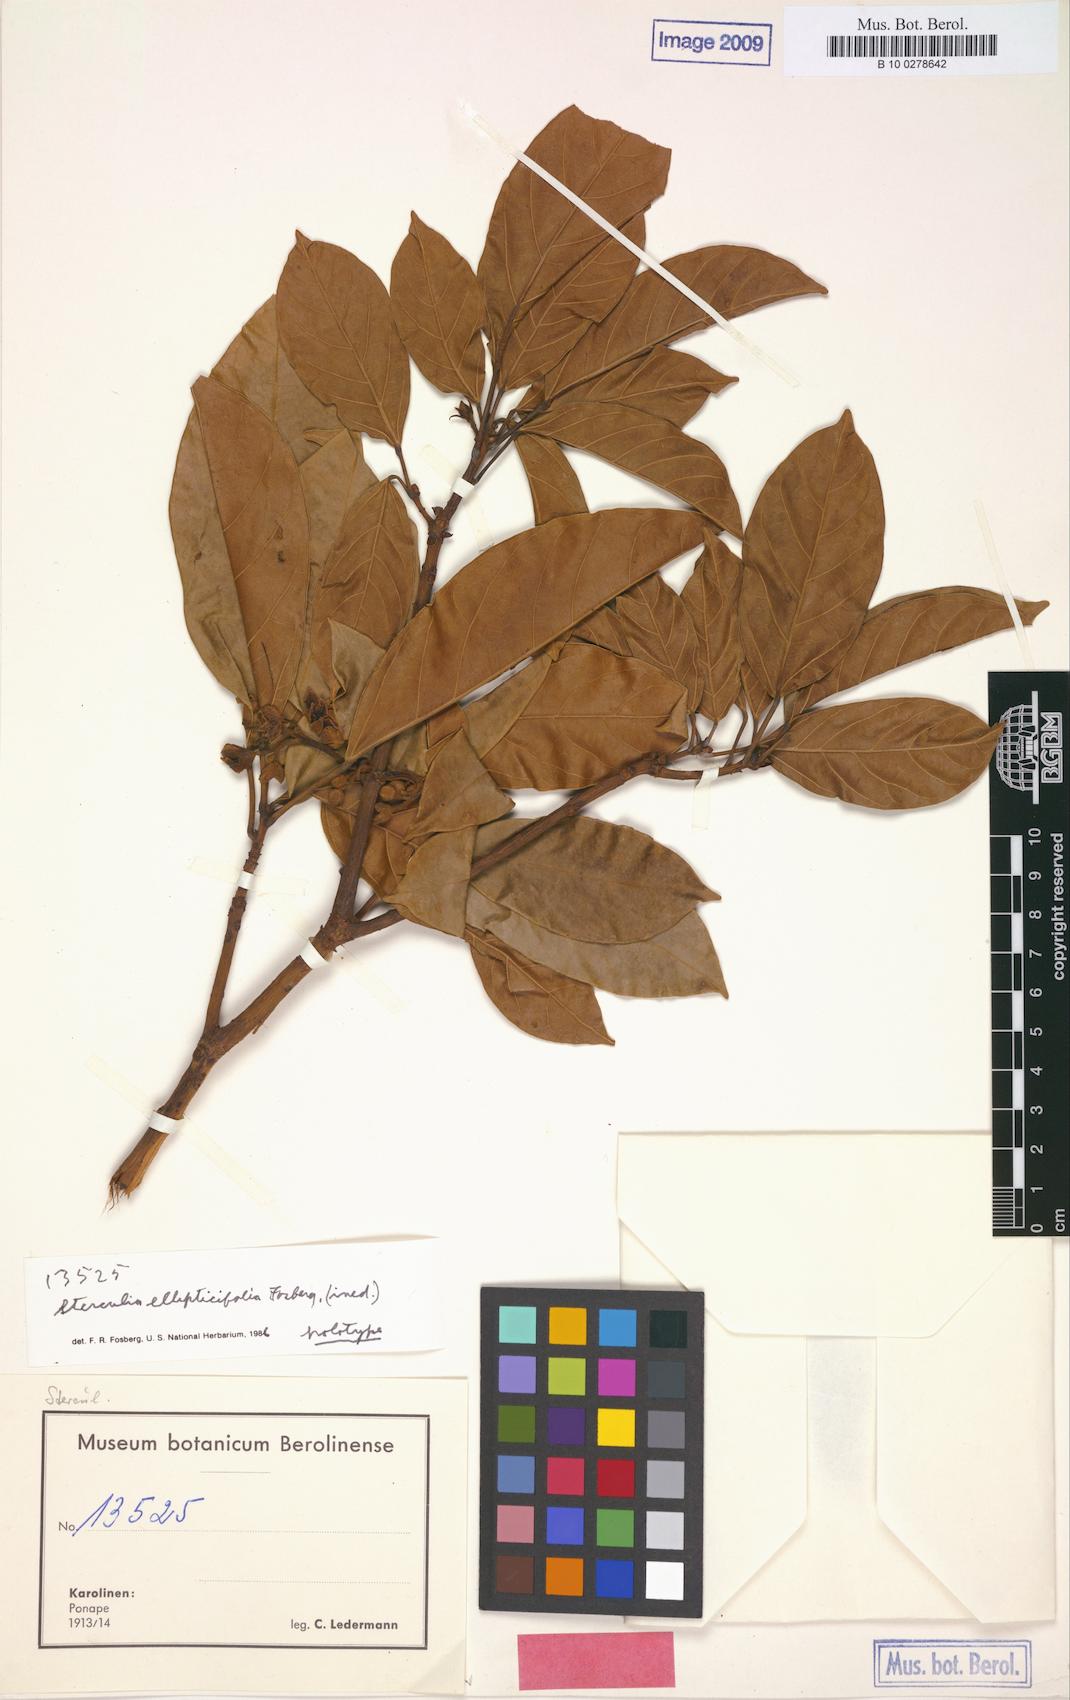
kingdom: Plantae
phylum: Tracheophyta
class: Magnoliopsida
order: Malvales
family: Malvaceae
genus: Sterculia
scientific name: Sterculia ellipticifolia
